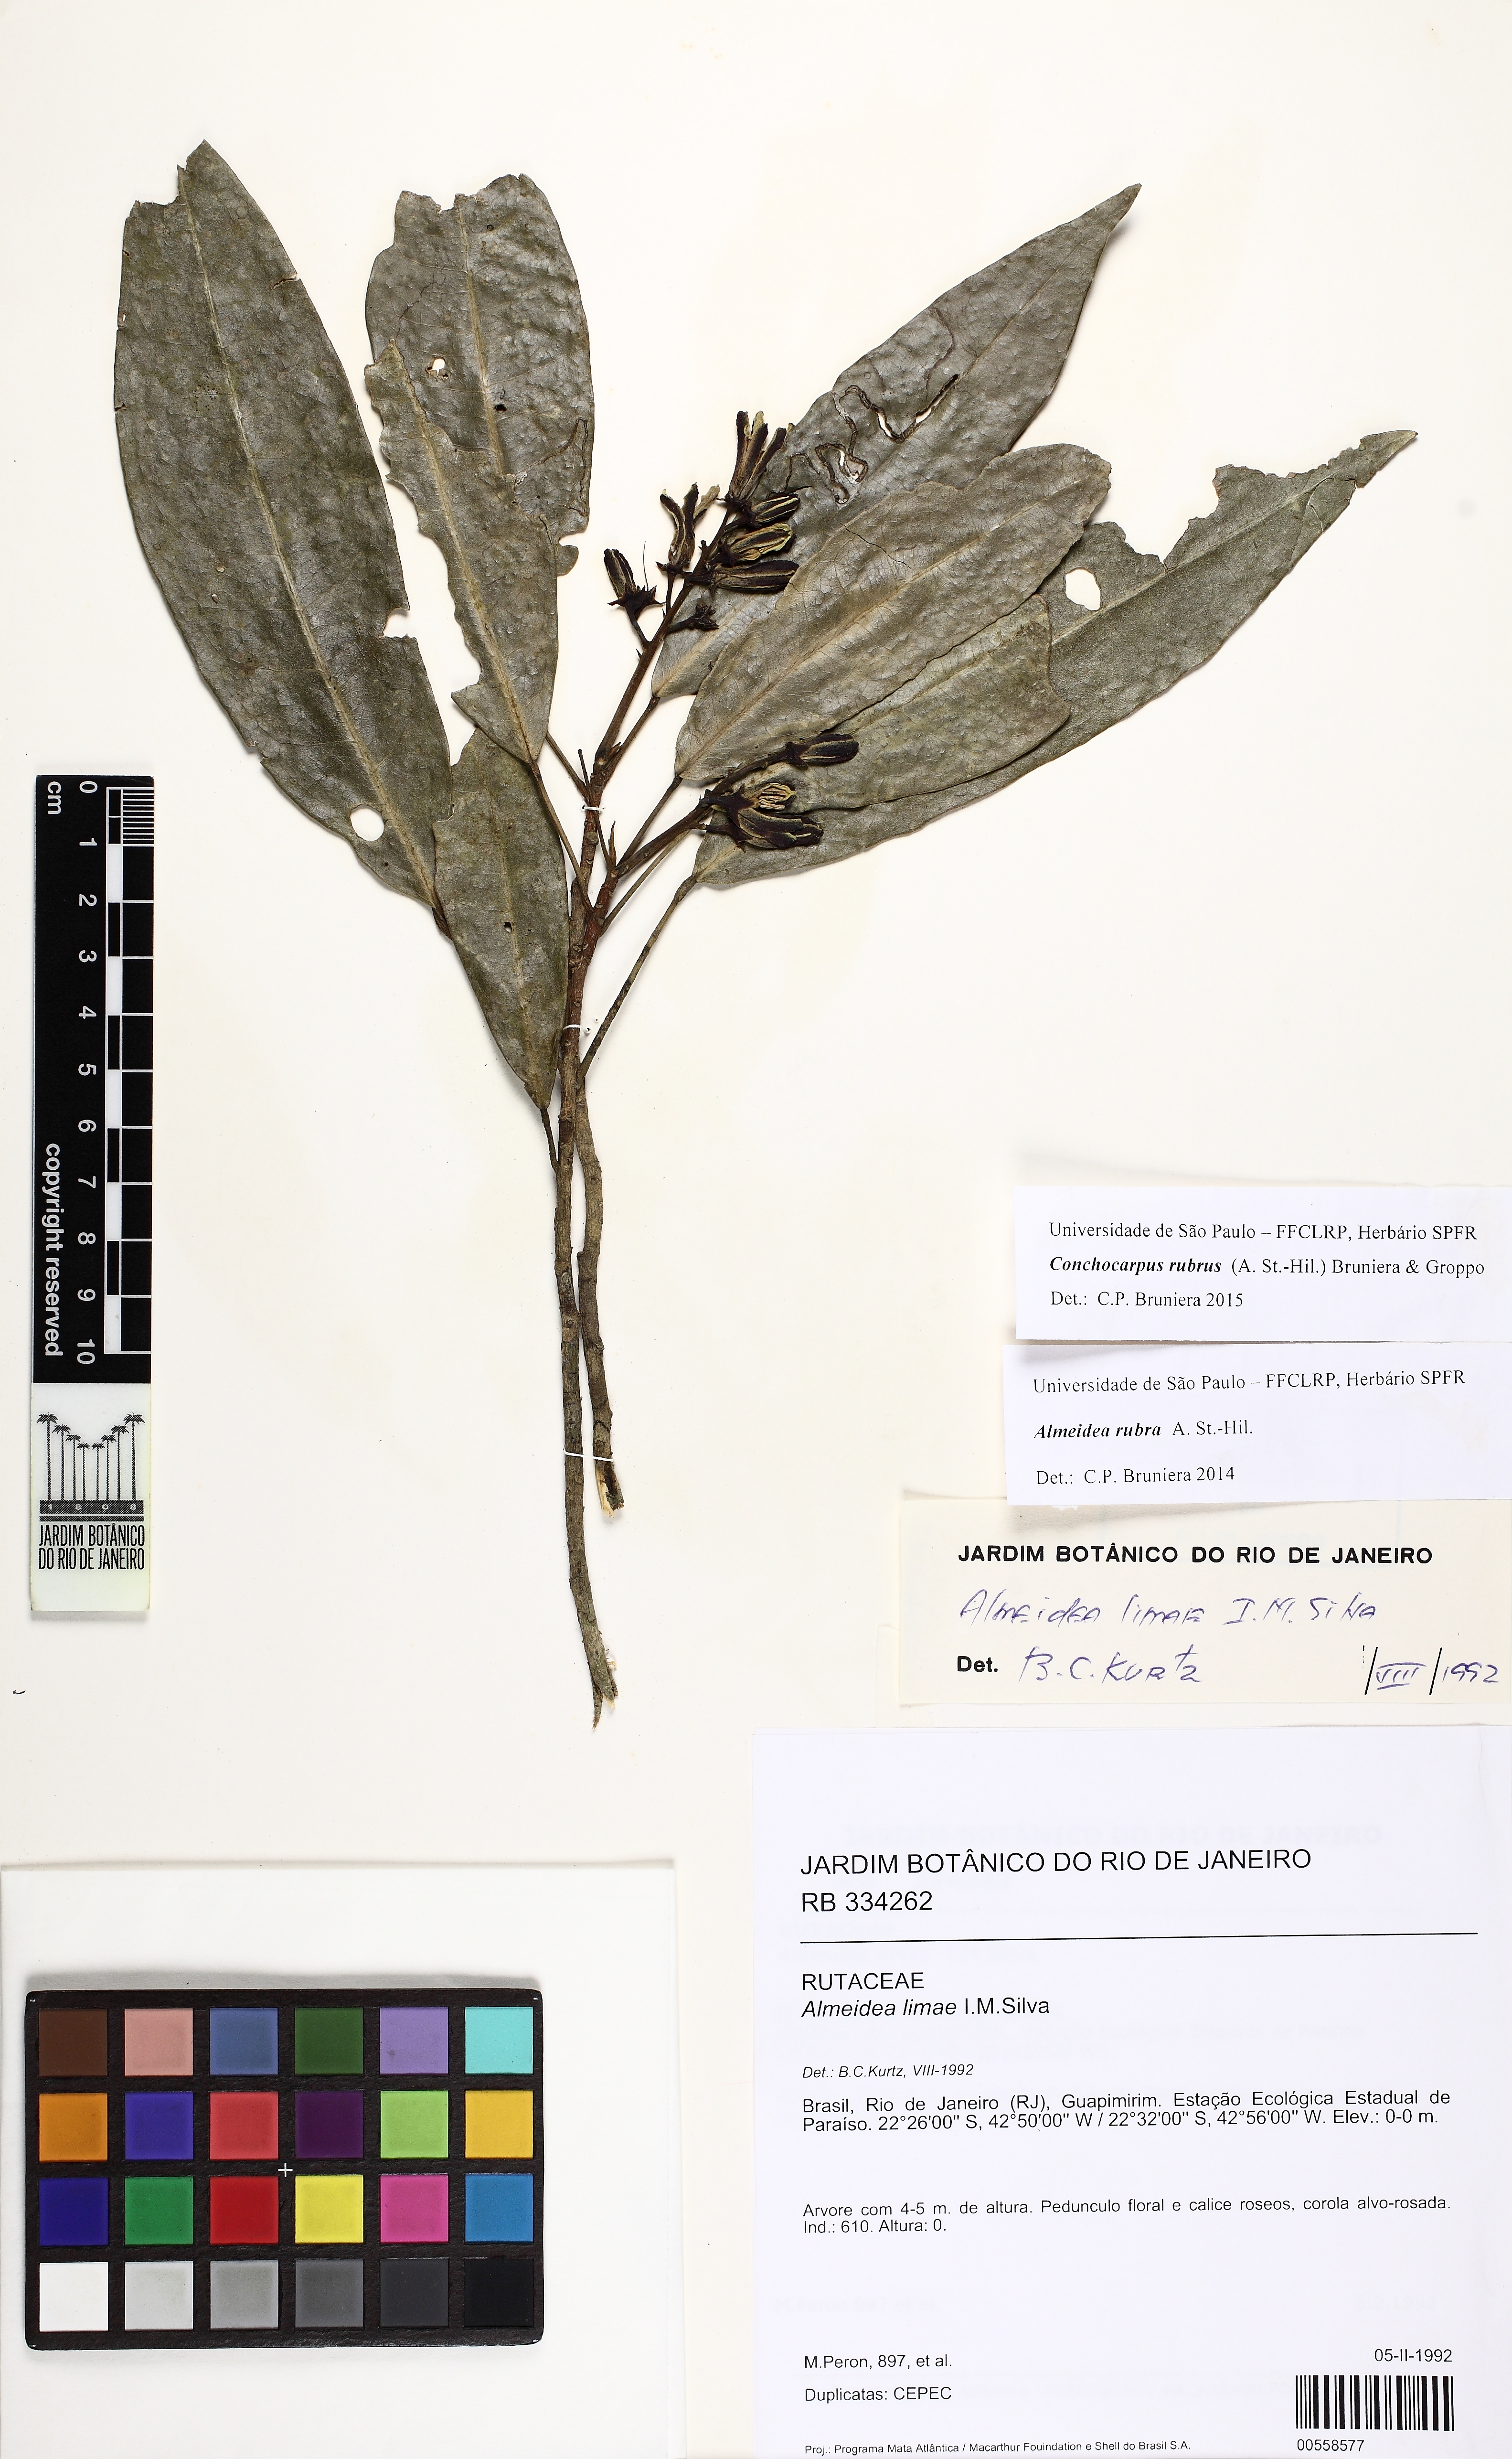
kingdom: Plantae
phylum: Tracheophyta
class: Magnoliopsida
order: Sapindales
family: Rutaceae
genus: Conchocarpus
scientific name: Conchocarpus ruber
